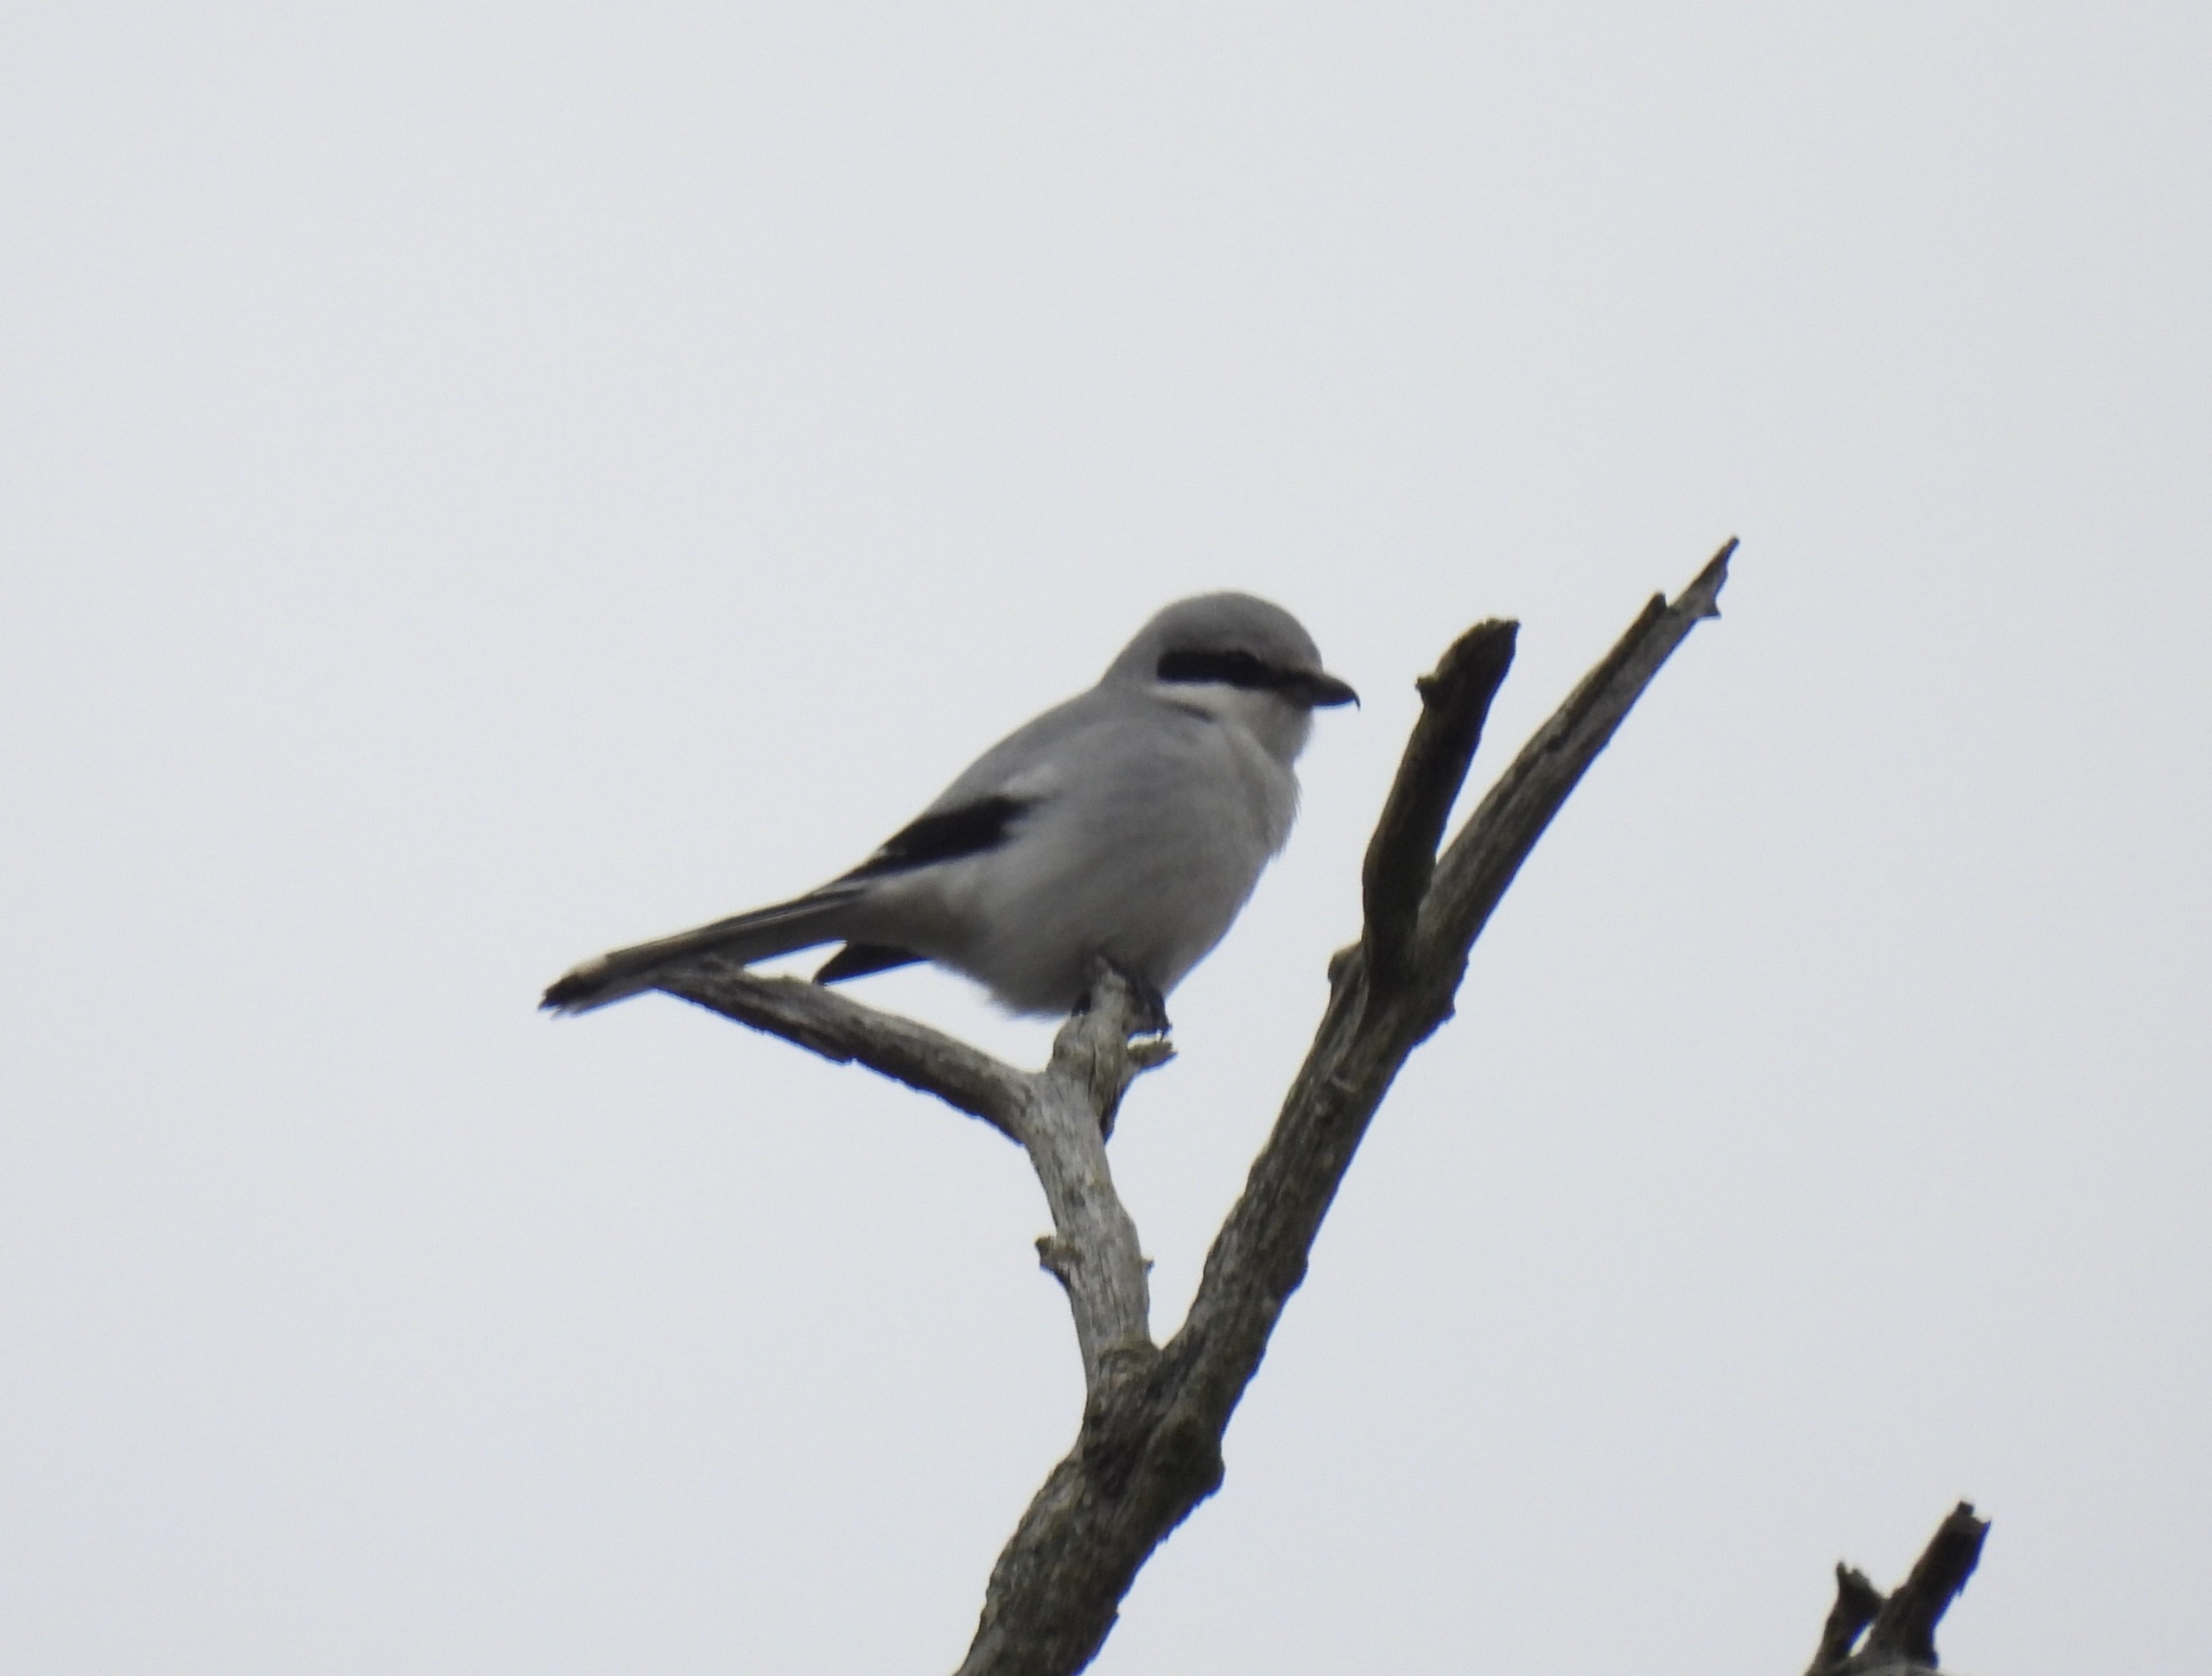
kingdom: Animalia
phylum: Chordata
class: Aves
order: Passeriformes
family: Laniidae
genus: Lanius
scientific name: Lanius excubitor
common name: Stor tornskade
